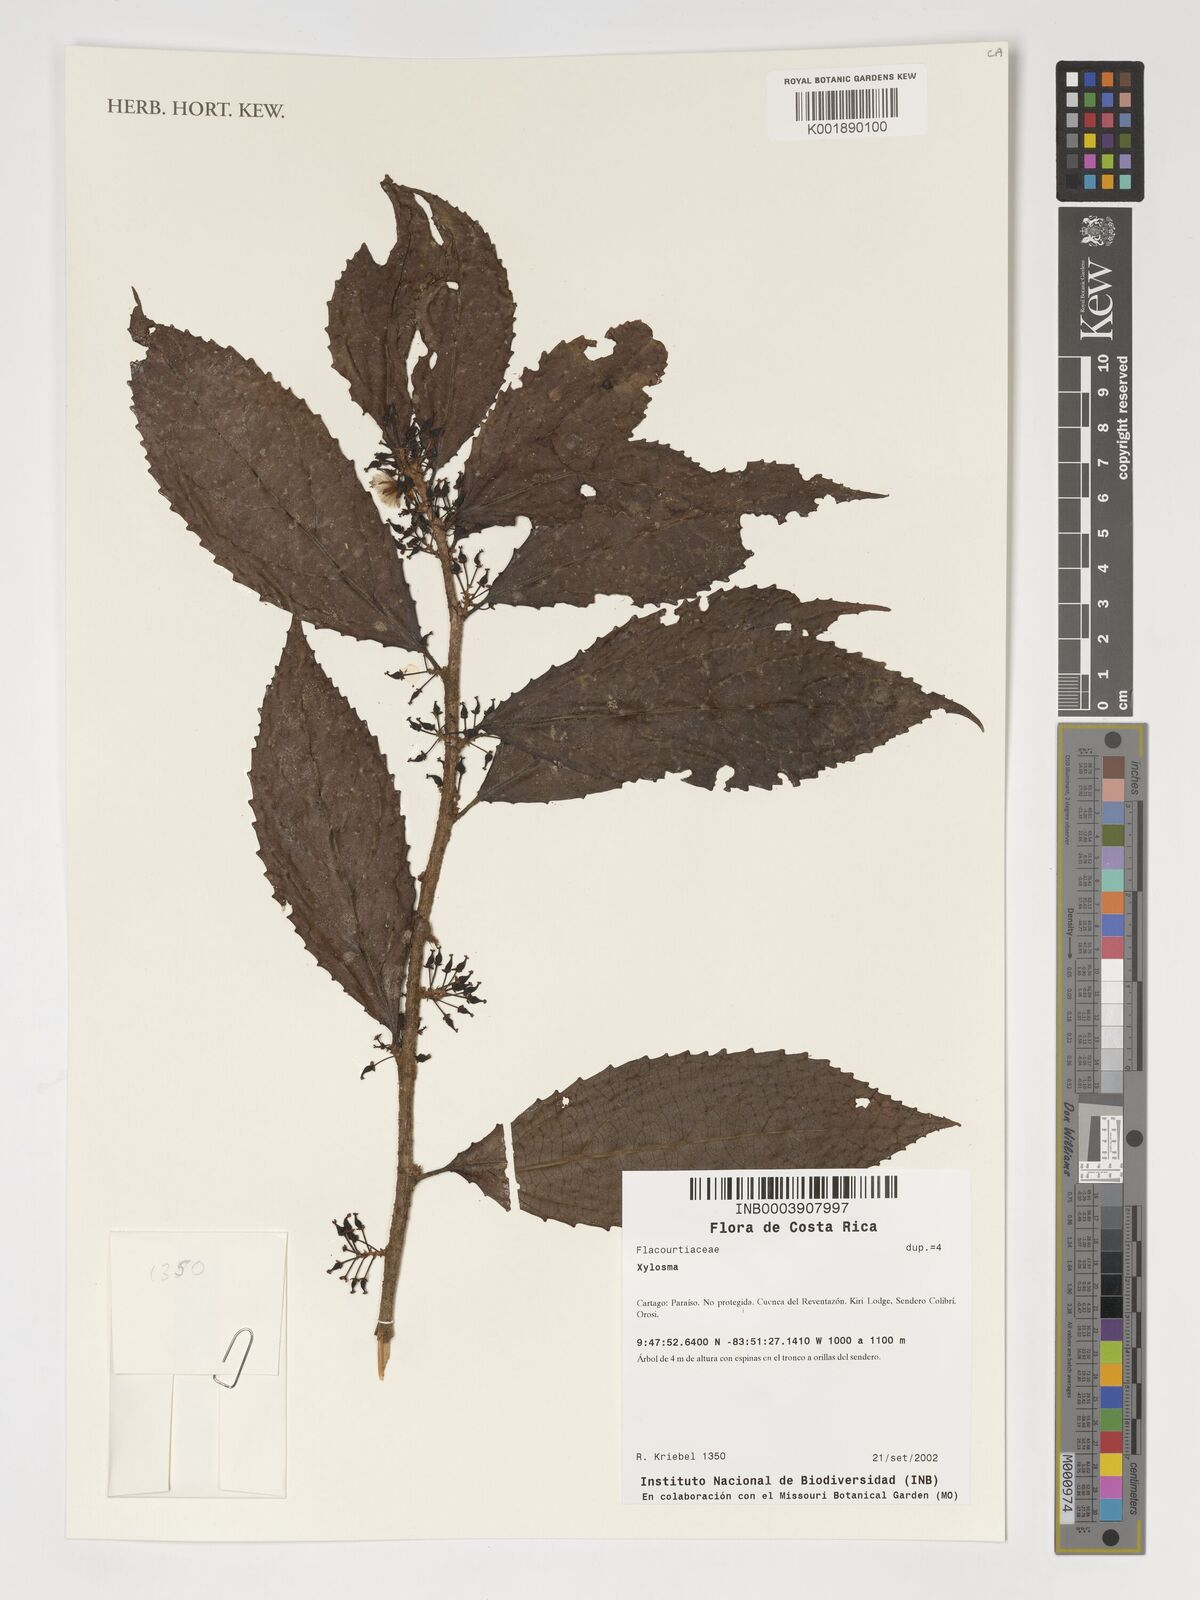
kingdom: Plantae
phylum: Tracheophyta
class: Magnoliopsida
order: Malpighiales
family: Salicaceae
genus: Xylosma
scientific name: Xylosma
